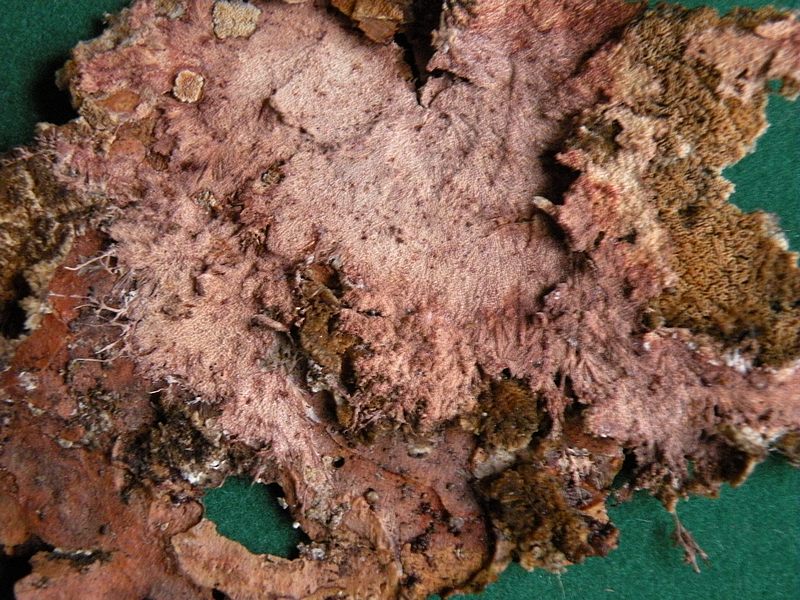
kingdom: Fungi
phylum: Basidiomycota
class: Agaricomycetes
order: Polyporales
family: Steccherinaceae
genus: Steccherinum
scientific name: Steccherinum fimbriatum
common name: trådet skønpig
